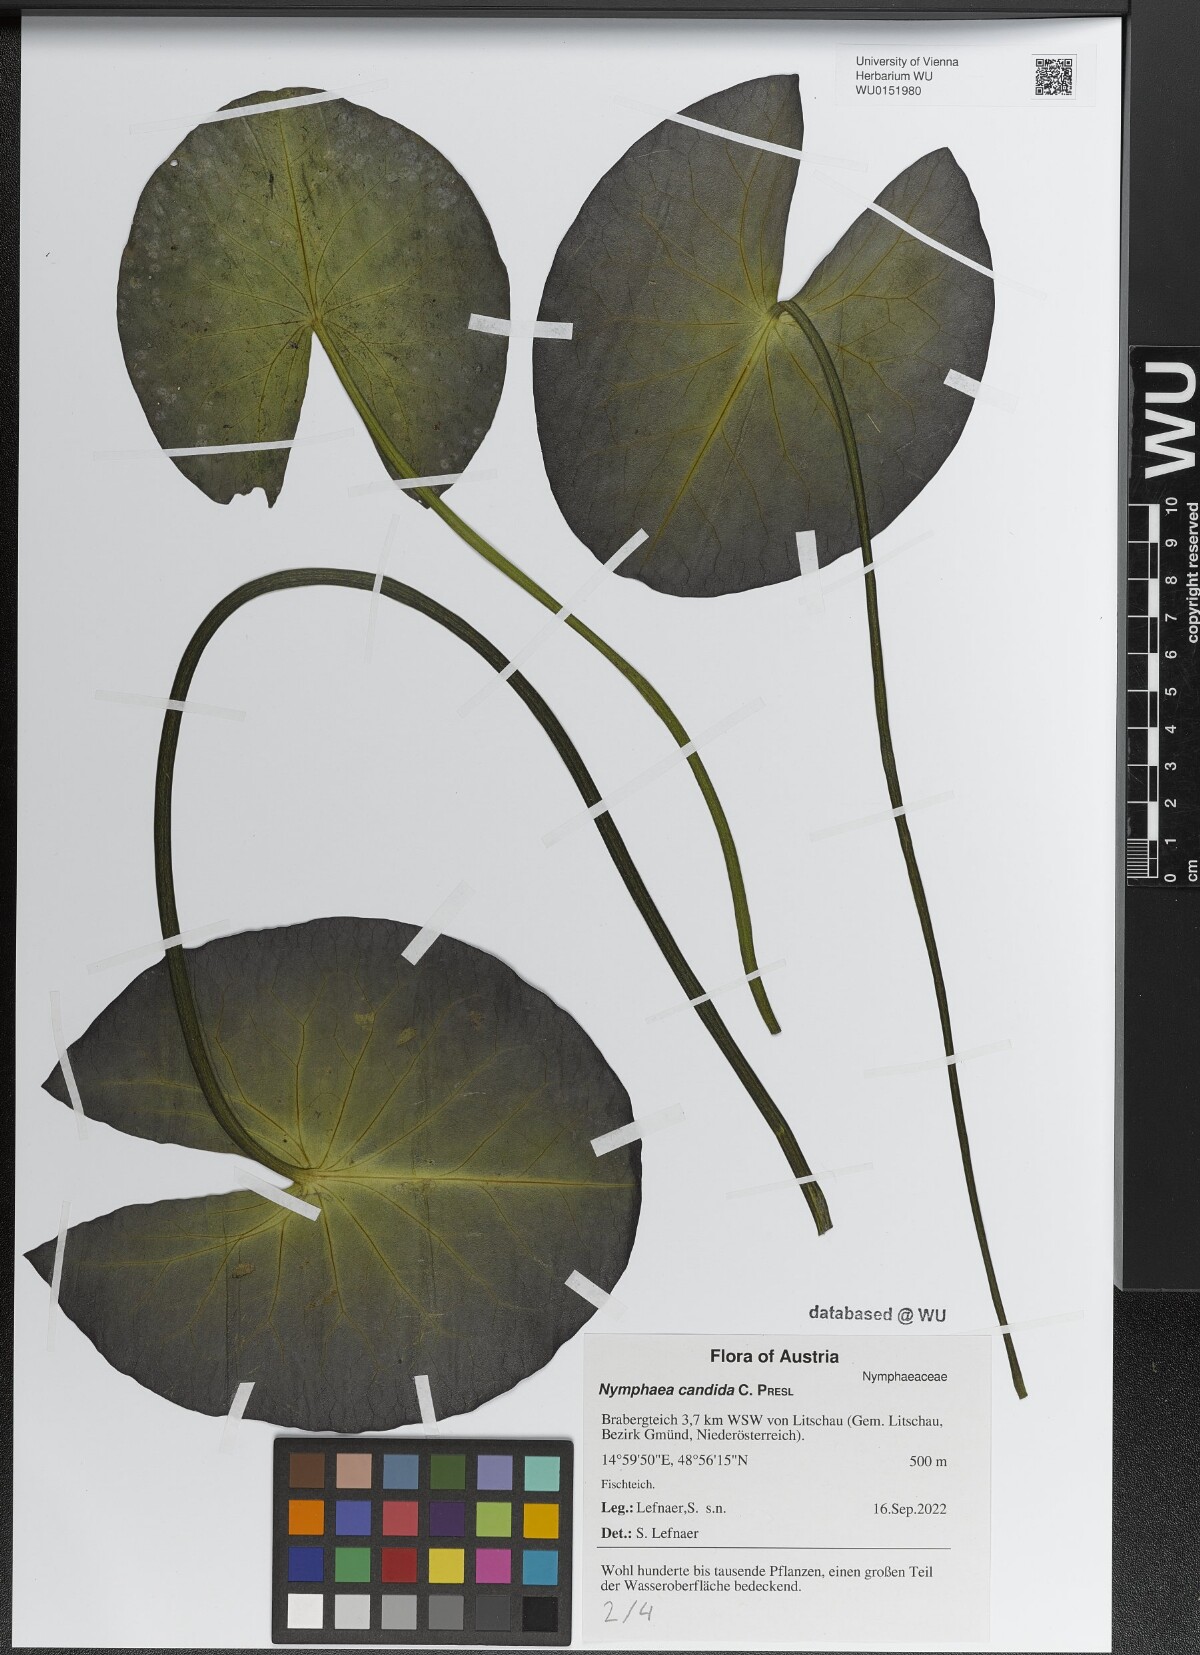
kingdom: Plantae
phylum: Tracheophyta
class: Magnoliopsida
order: Nymphaeales
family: Nymphaeaceae
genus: Nymphaea
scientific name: Nymphaea candida
